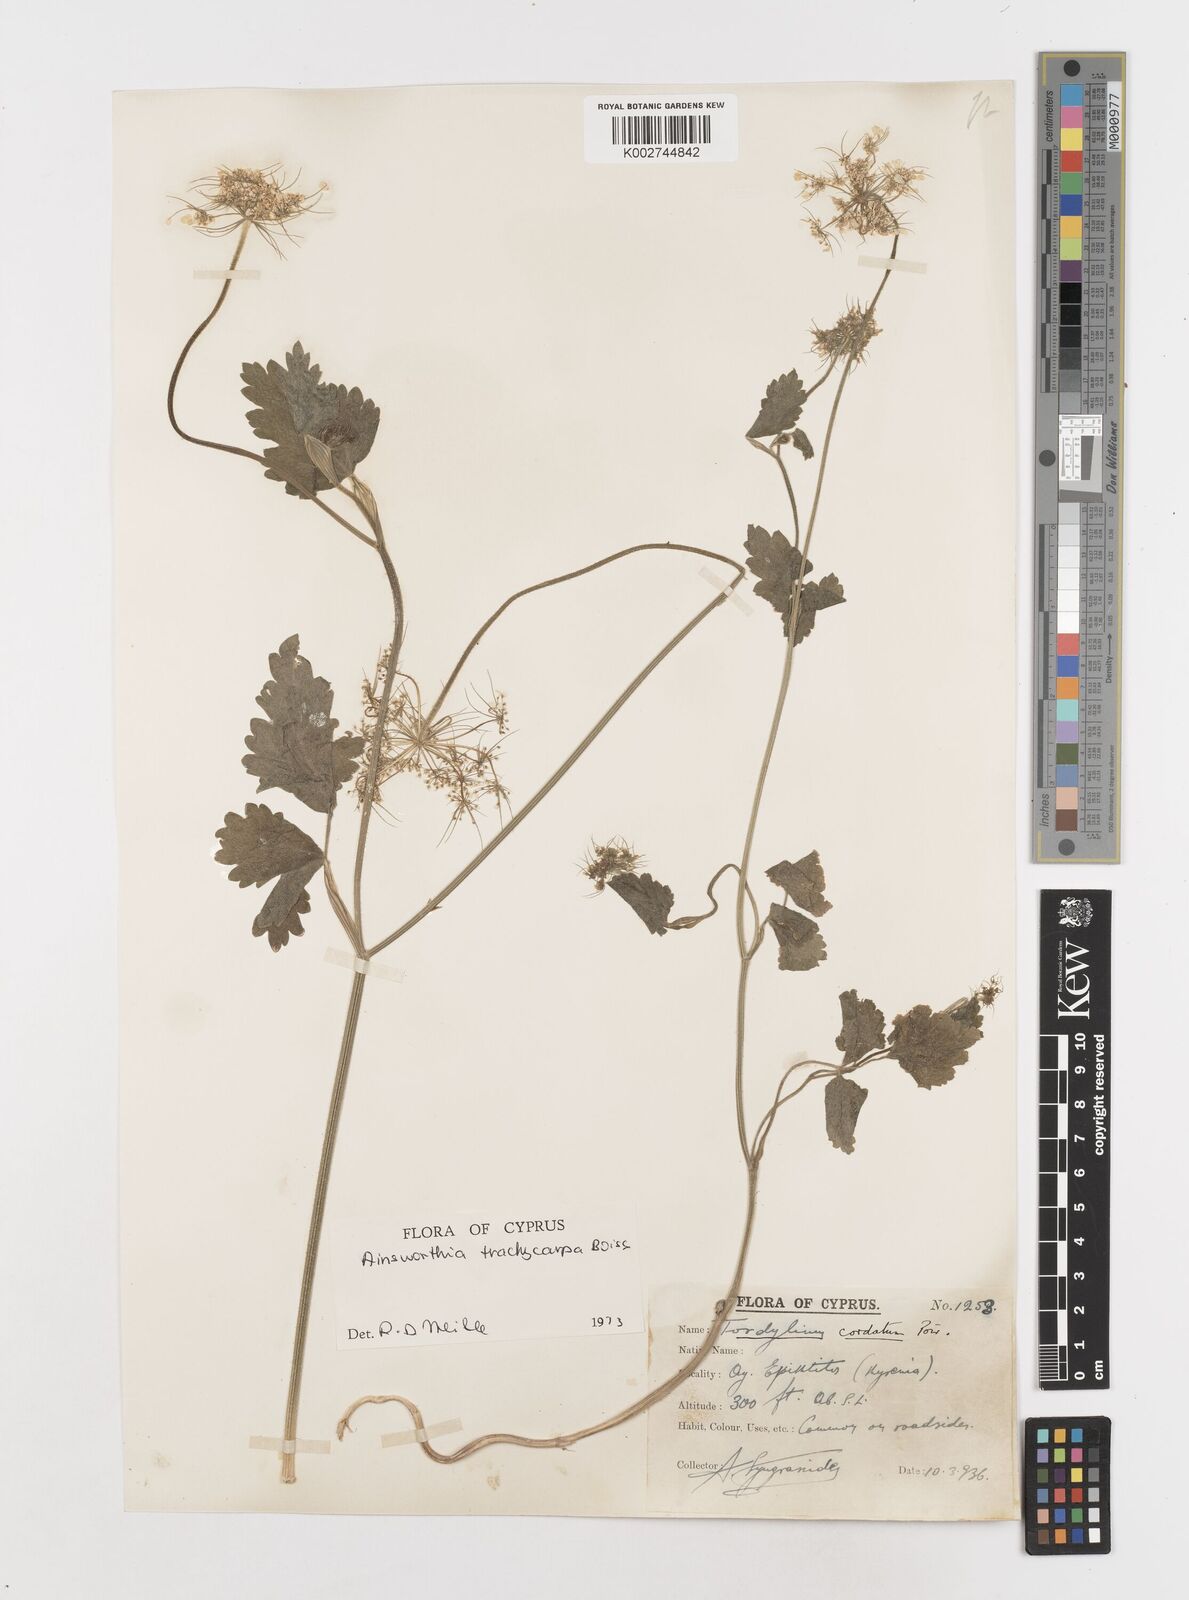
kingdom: Plantae
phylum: Tracheophyta
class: Magnoliopsida
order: Apiales
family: Apiaceae
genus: Ainsworthia
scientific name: Ainsworthia trachycarpa
